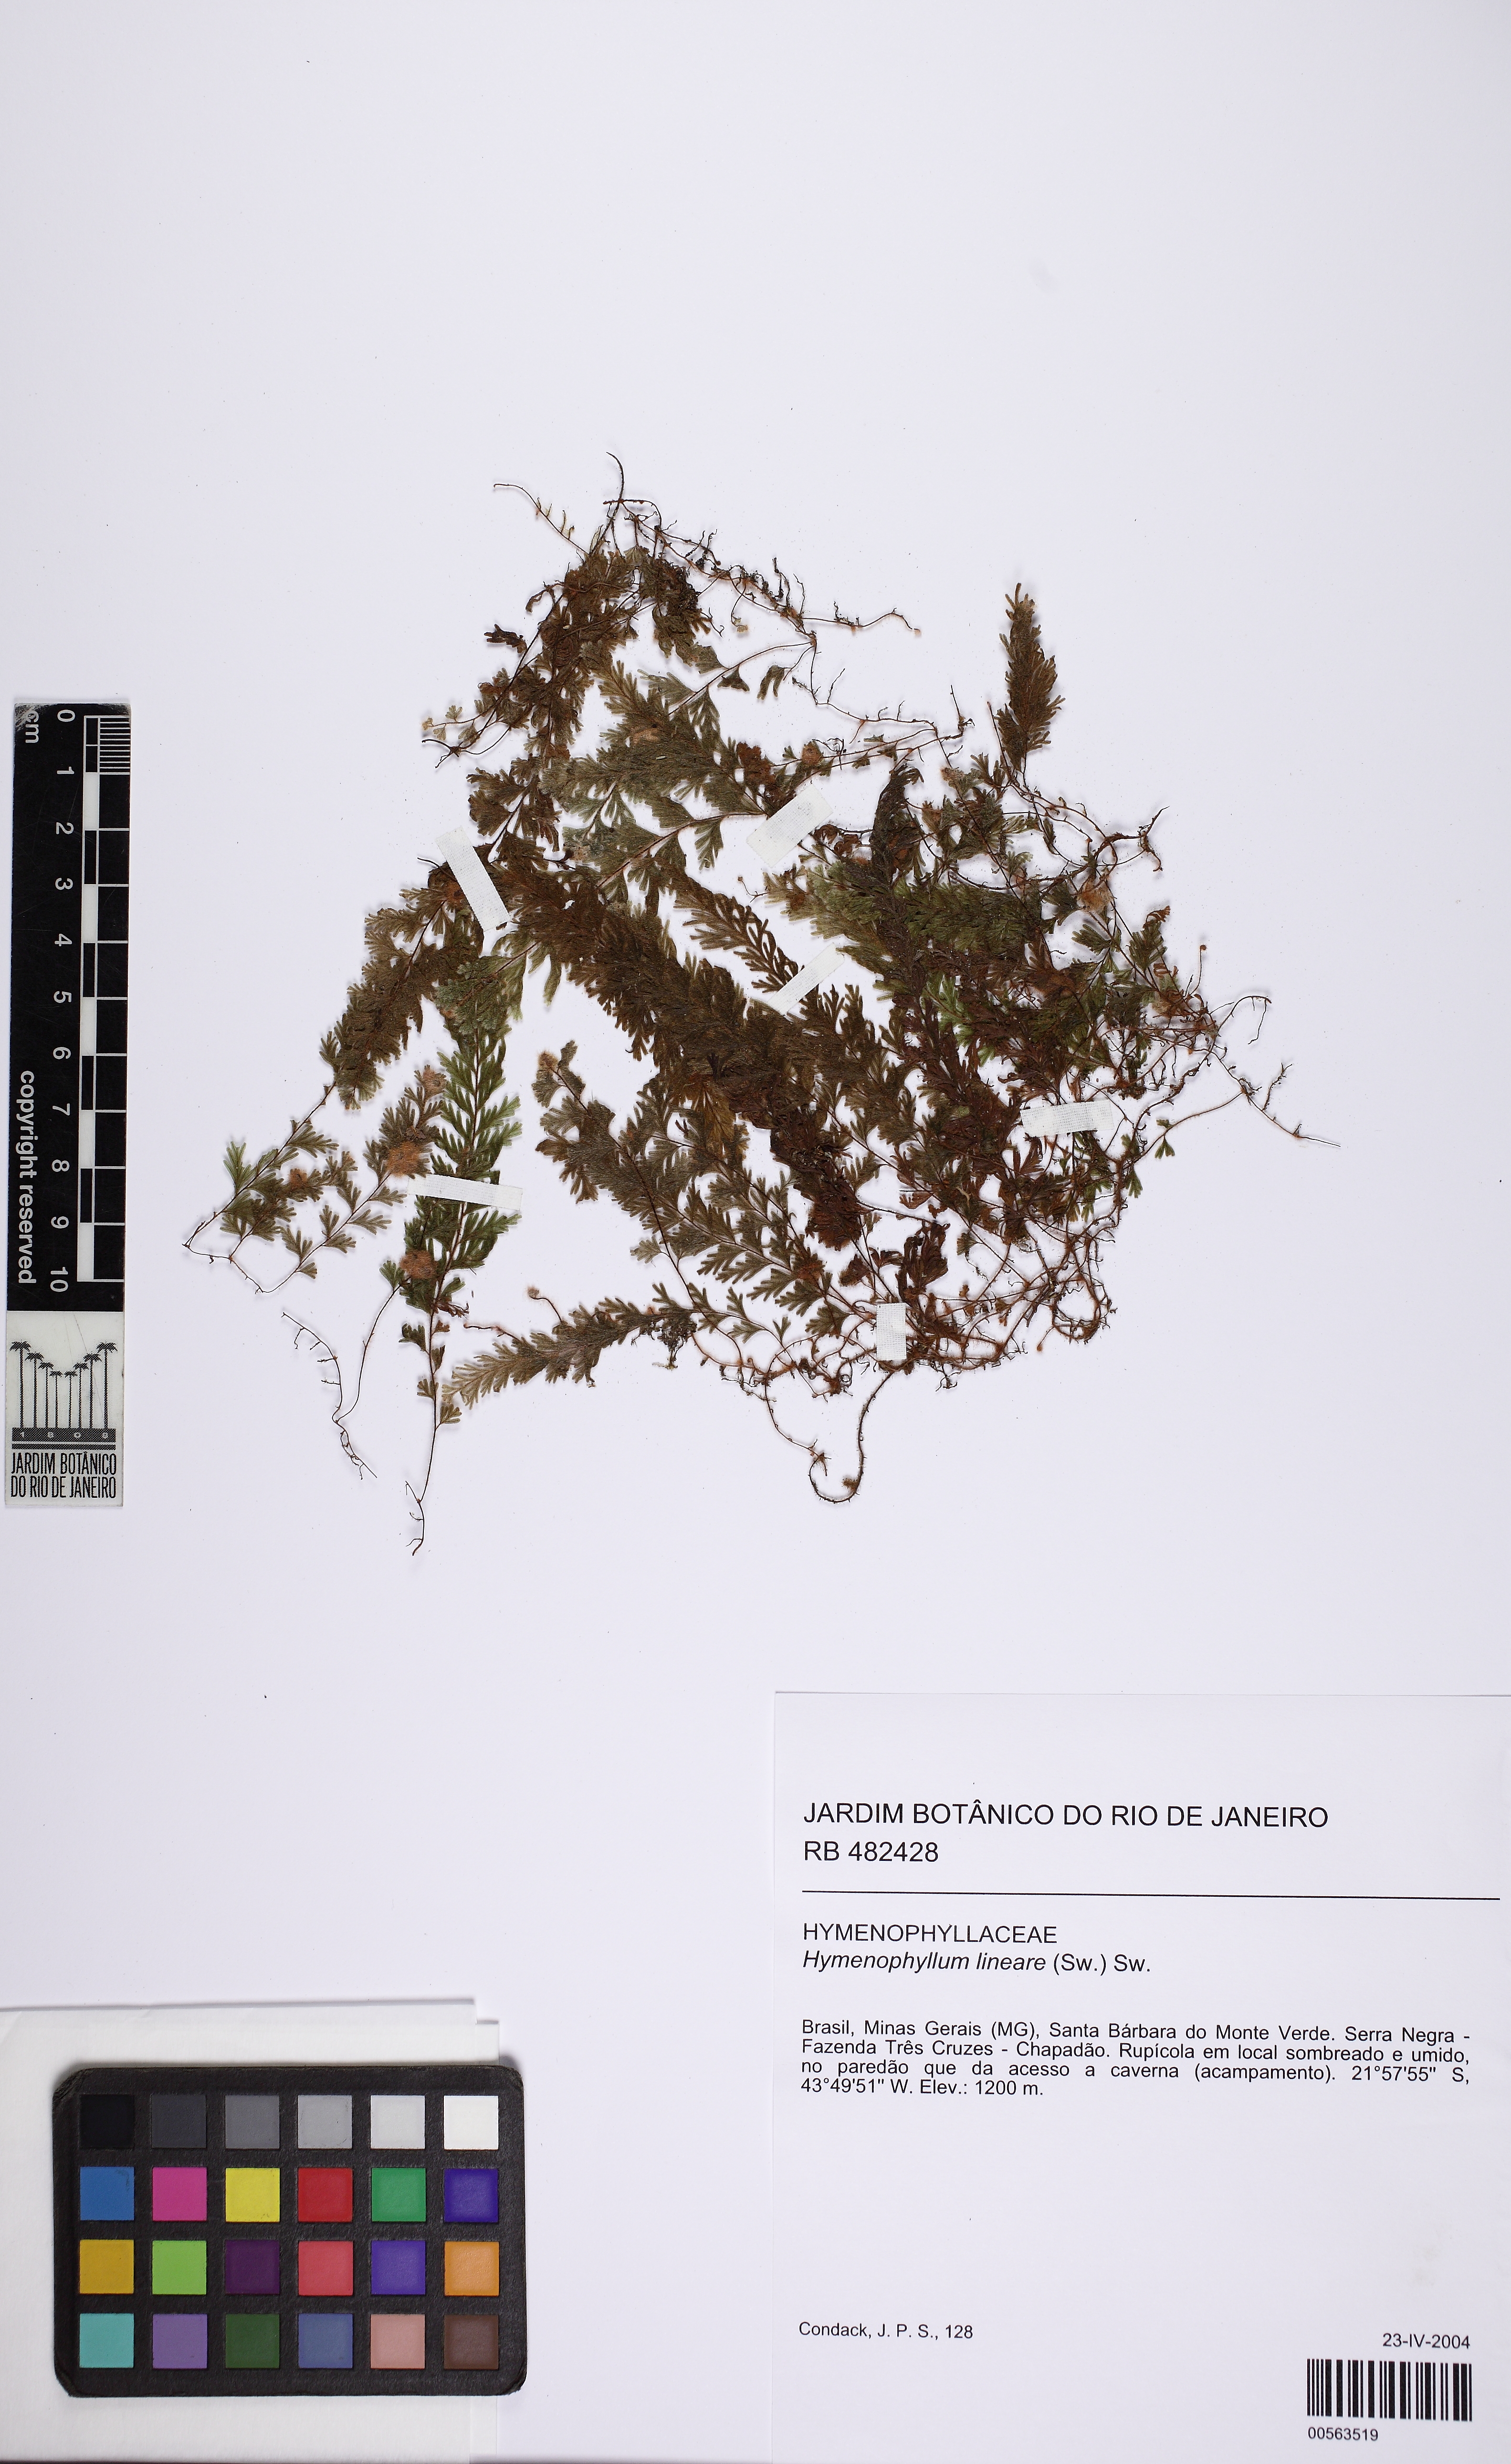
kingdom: Plantae
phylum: Tracheophyta
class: Polypodiopsida
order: Hymenophyllales
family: Hymenophyllaceae
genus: Hymenophyllum
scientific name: Hymenophyllum pulchellum
